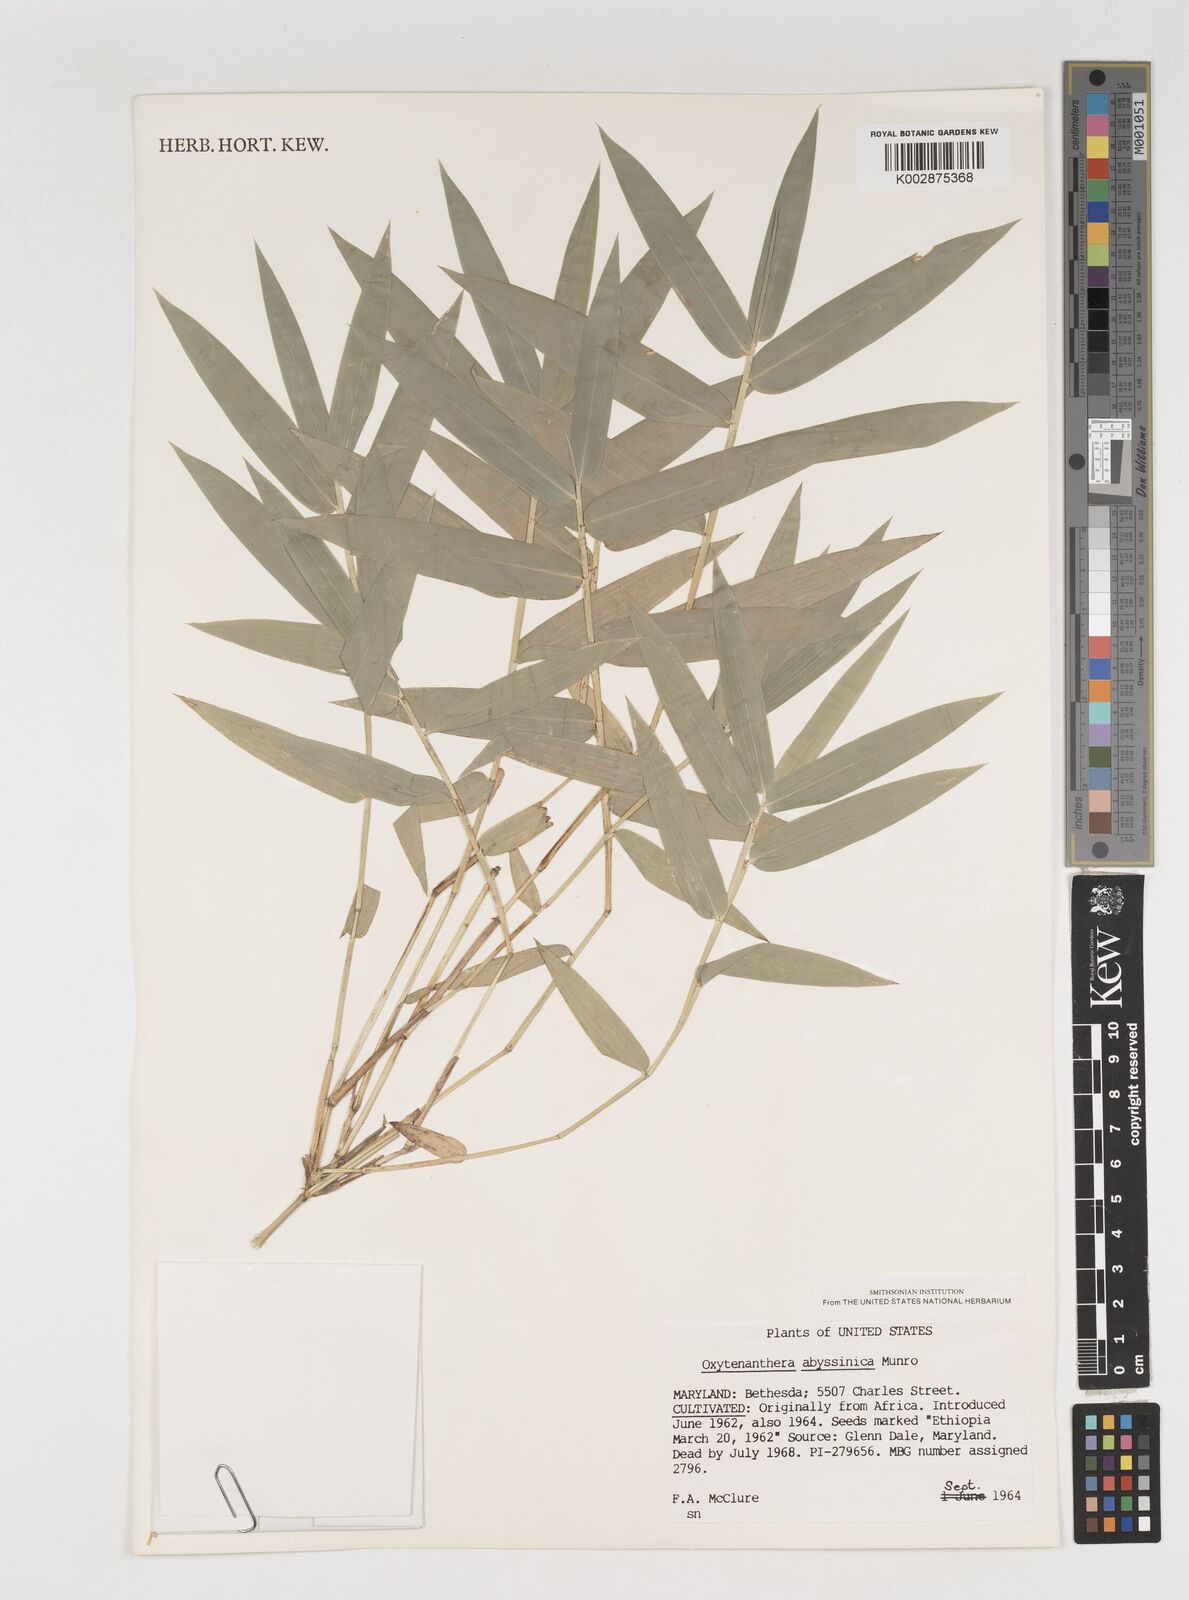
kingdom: Plantae
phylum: Tracheophyta
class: Liliopsida
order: Poales
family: Poaceae
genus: Oxytenanthera
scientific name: Oxytenanthera abyssinica
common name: Wine bamboo
